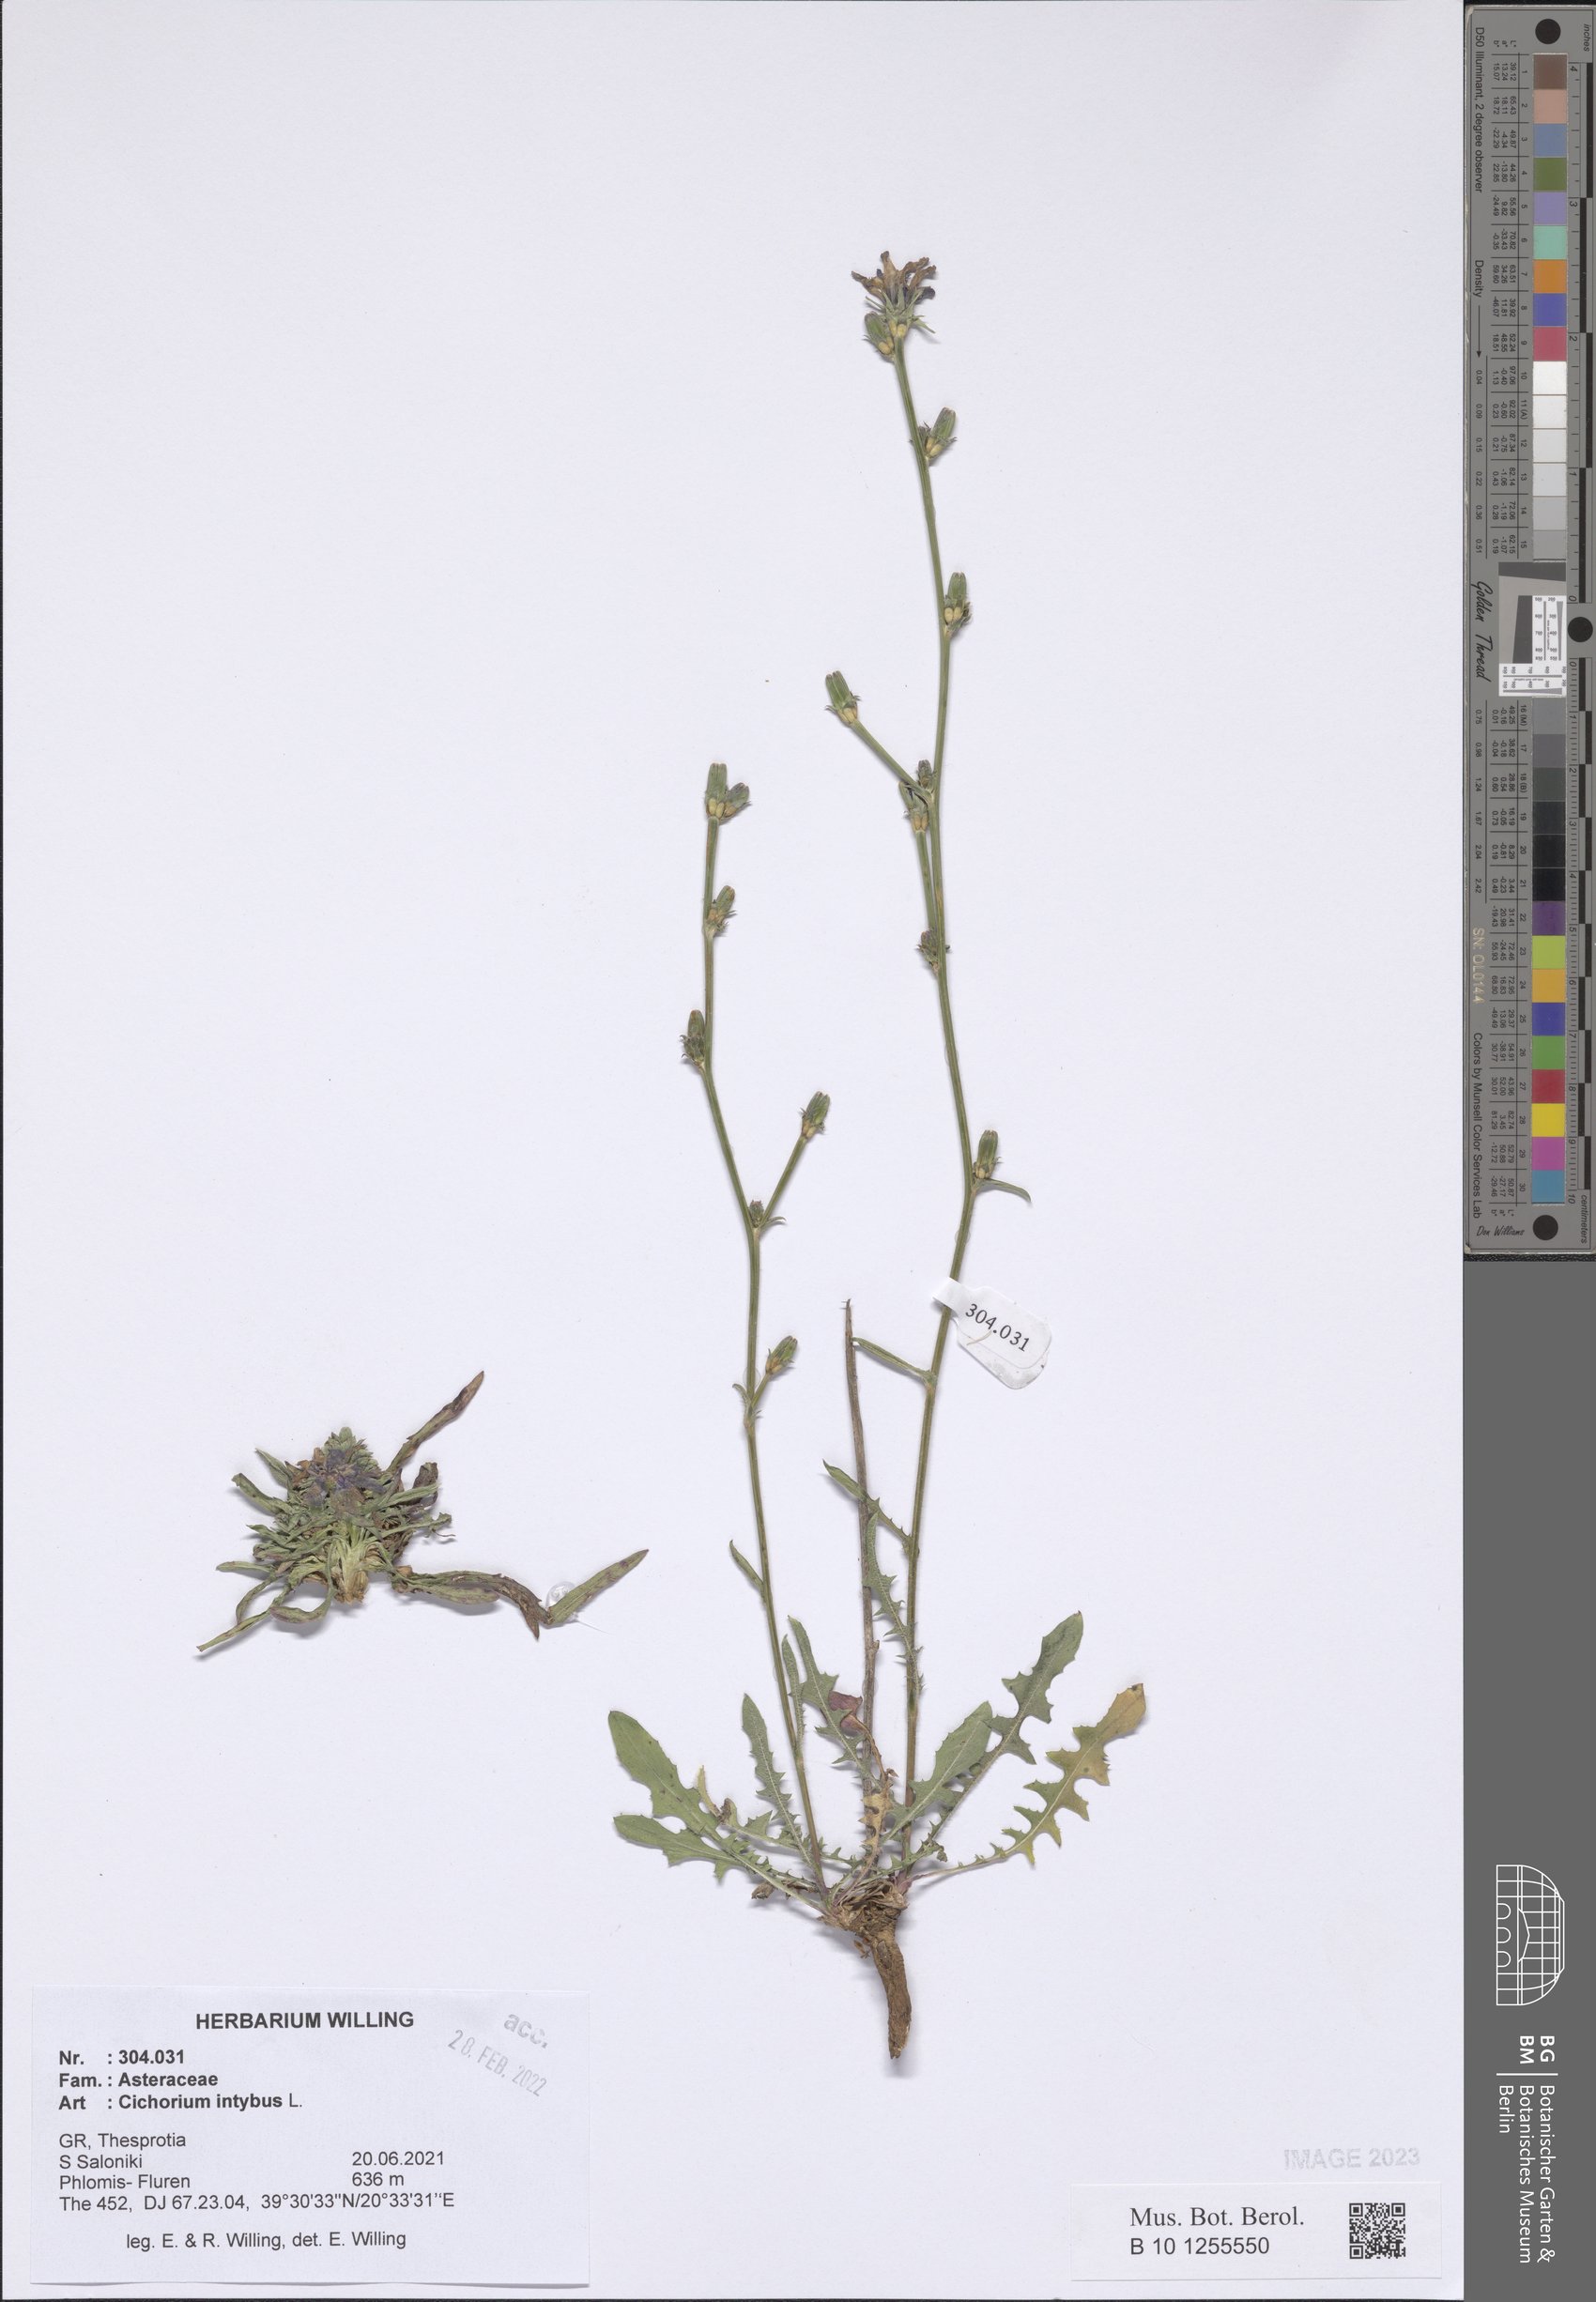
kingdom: Plantae
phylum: Tracheophyta
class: Magnoliopsida
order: Asterales
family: Asteraceae
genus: Cichorium
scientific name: Cichorium intybus
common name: Chicory
